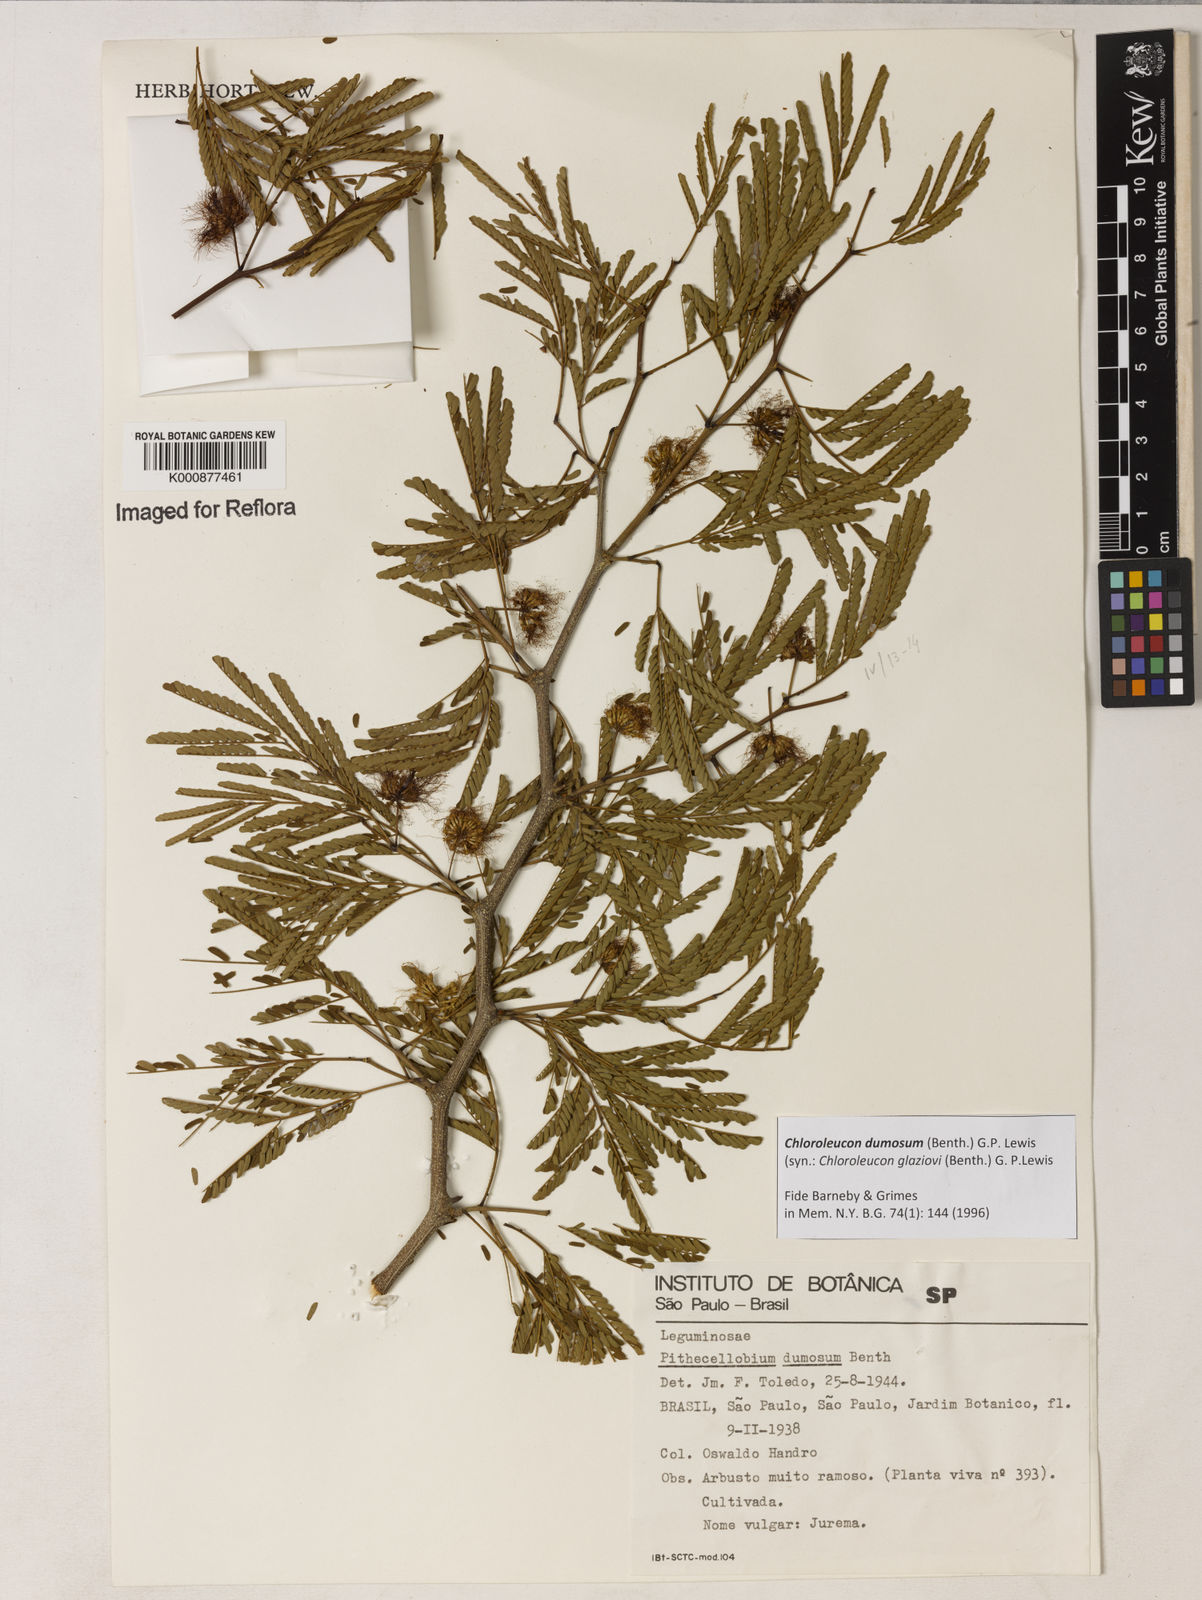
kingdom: Plantae
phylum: Tracheophyta
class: Magnoliopsida
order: Fabales
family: Fabaceae
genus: Chloroleucon
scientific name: Chloroleucon dumosum
